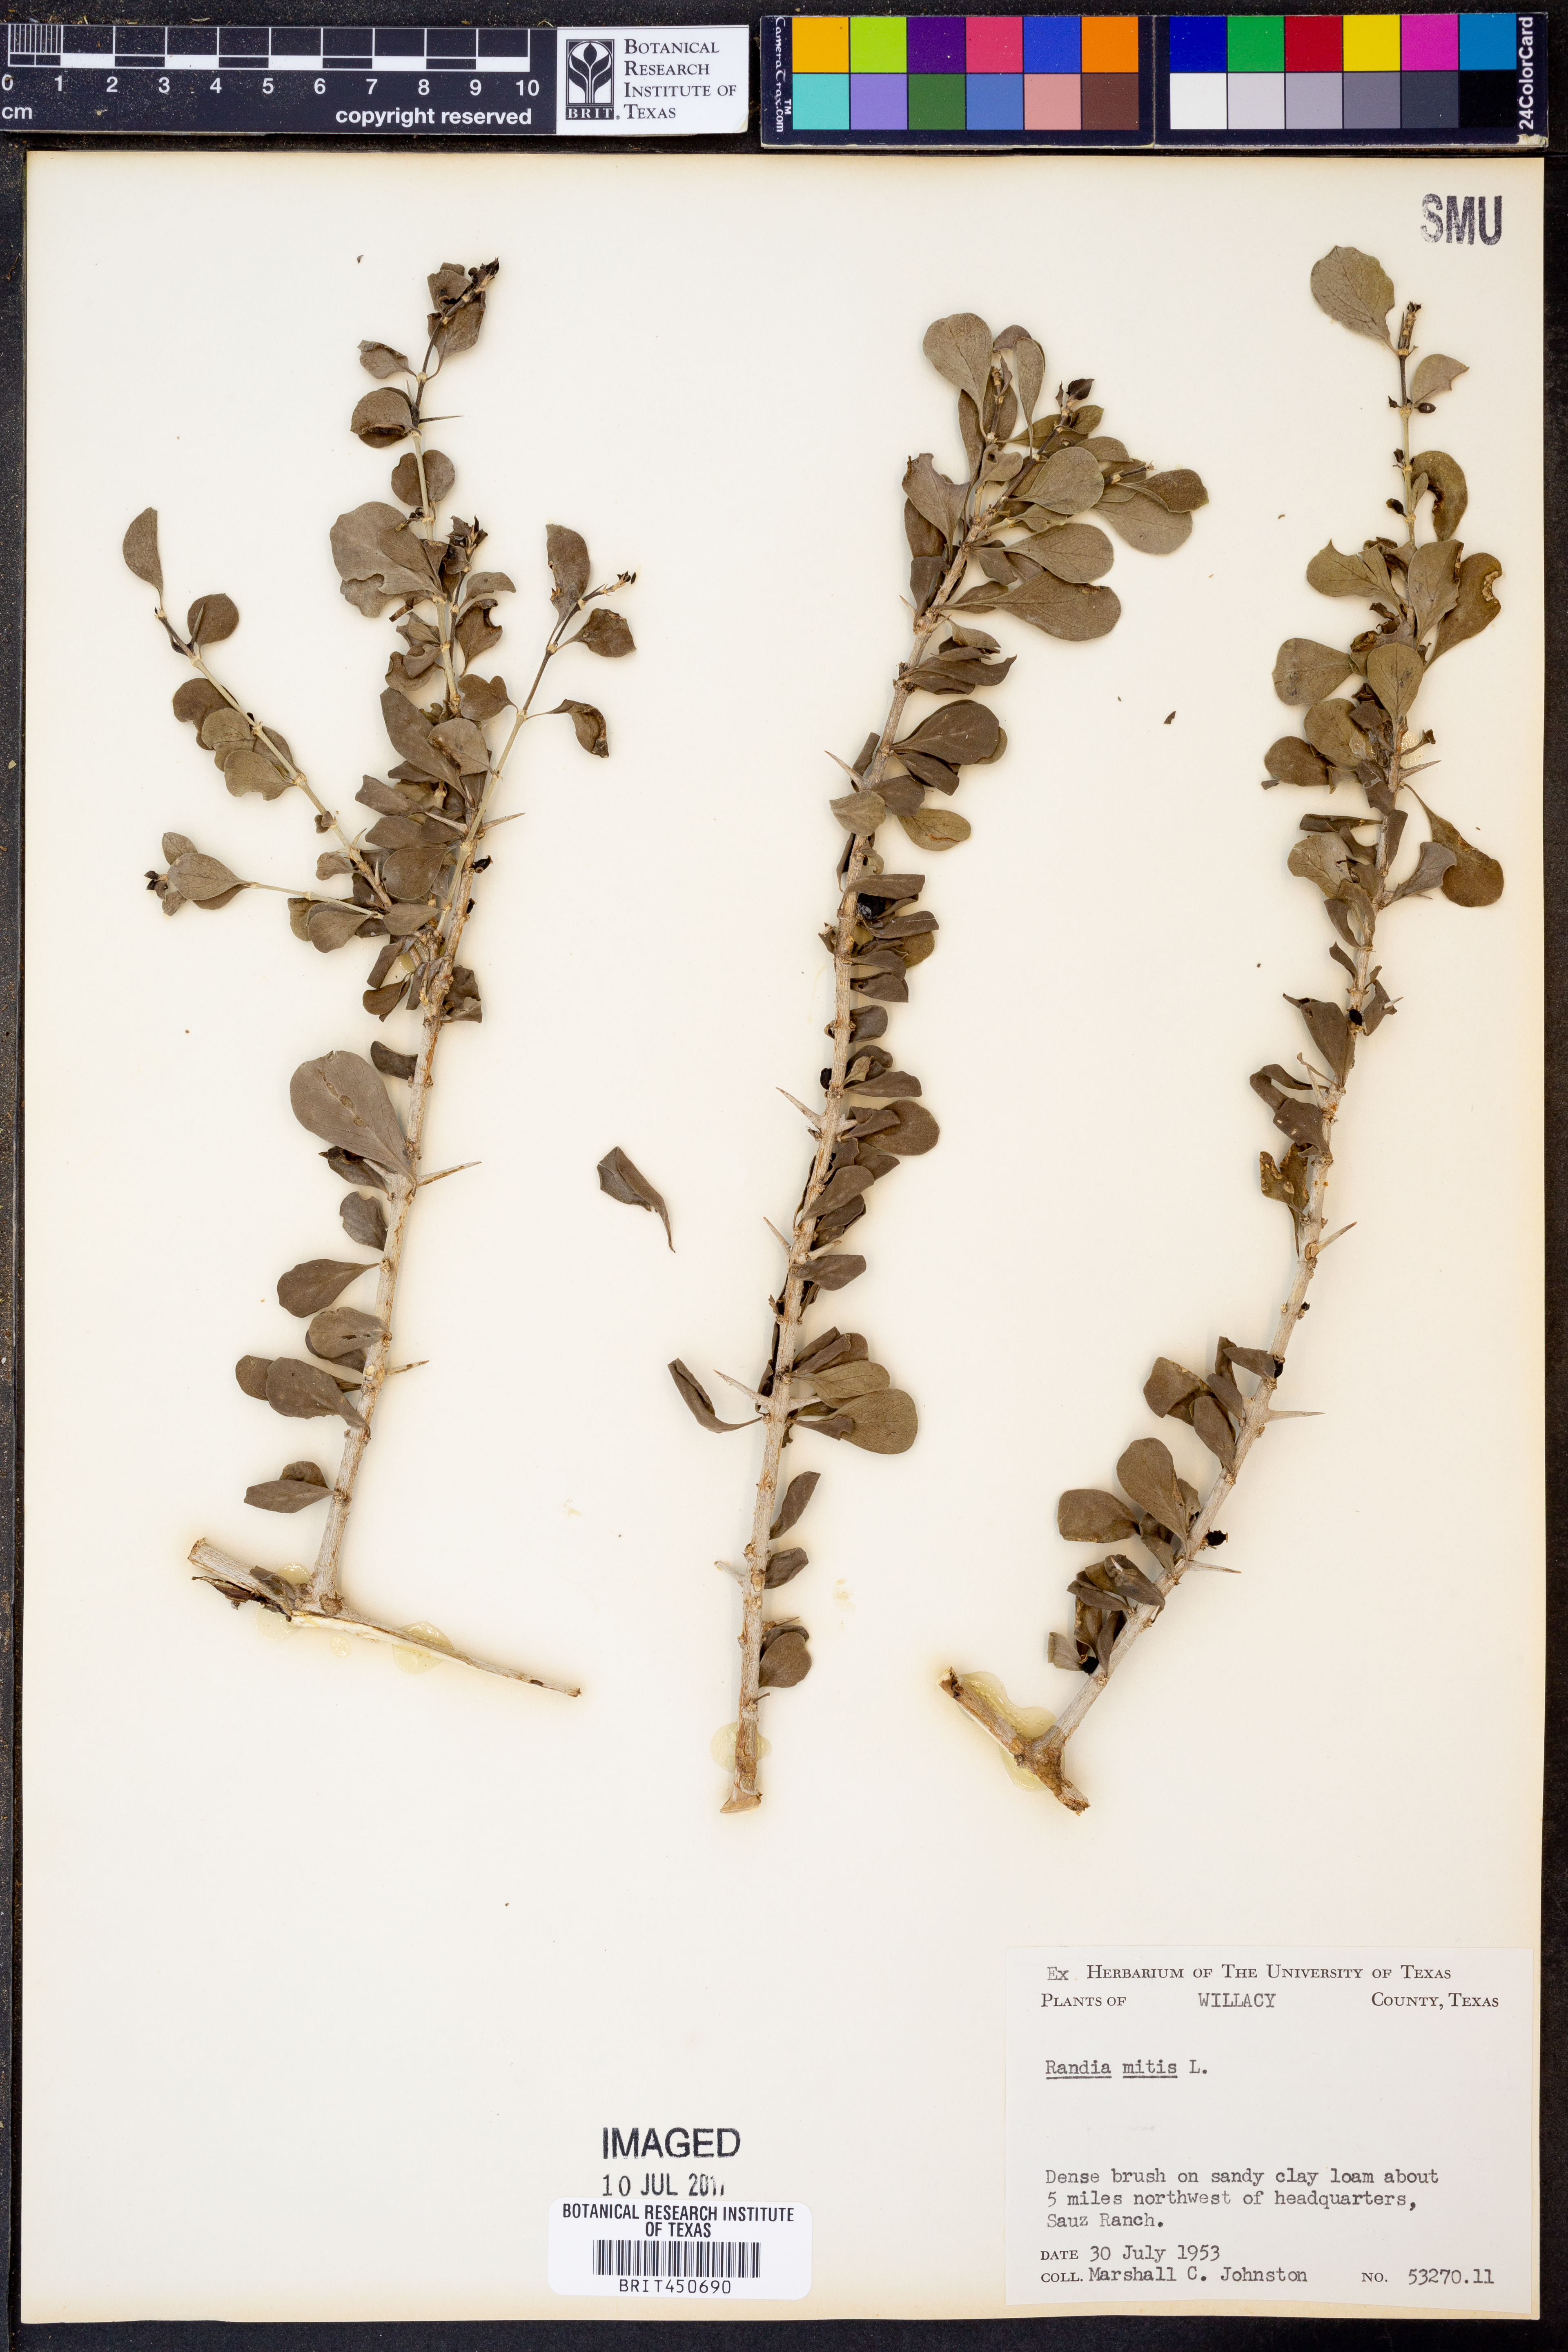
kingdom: Plantae
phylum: Tracheophyta
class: Magnoliopsida
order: Gentianales
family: Rubiaceae
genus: Randia
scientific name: Randia aculeata
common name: Inkberry
